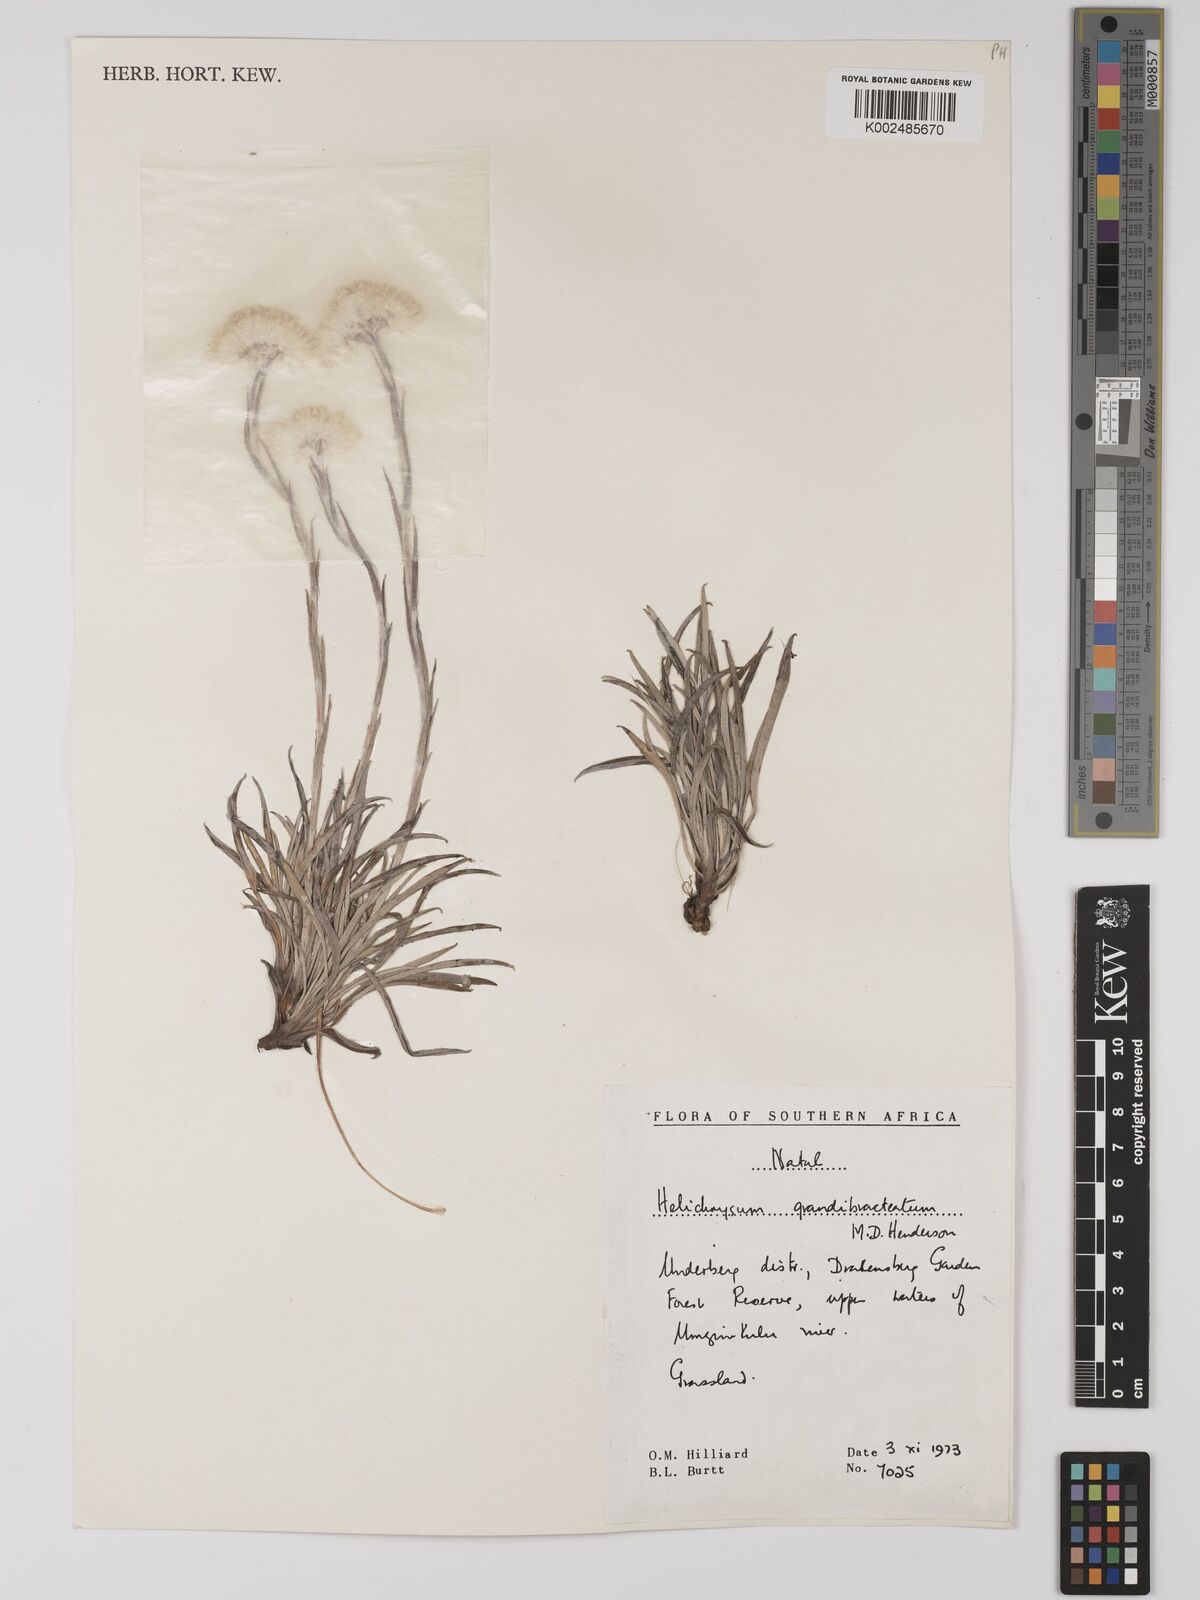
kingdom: Plantae
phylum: Tracheophyta
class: Magnoliopsida
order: Asterales
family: Asteraceae
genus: Helichrysum
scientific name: Helichrysum grandibracteatum
